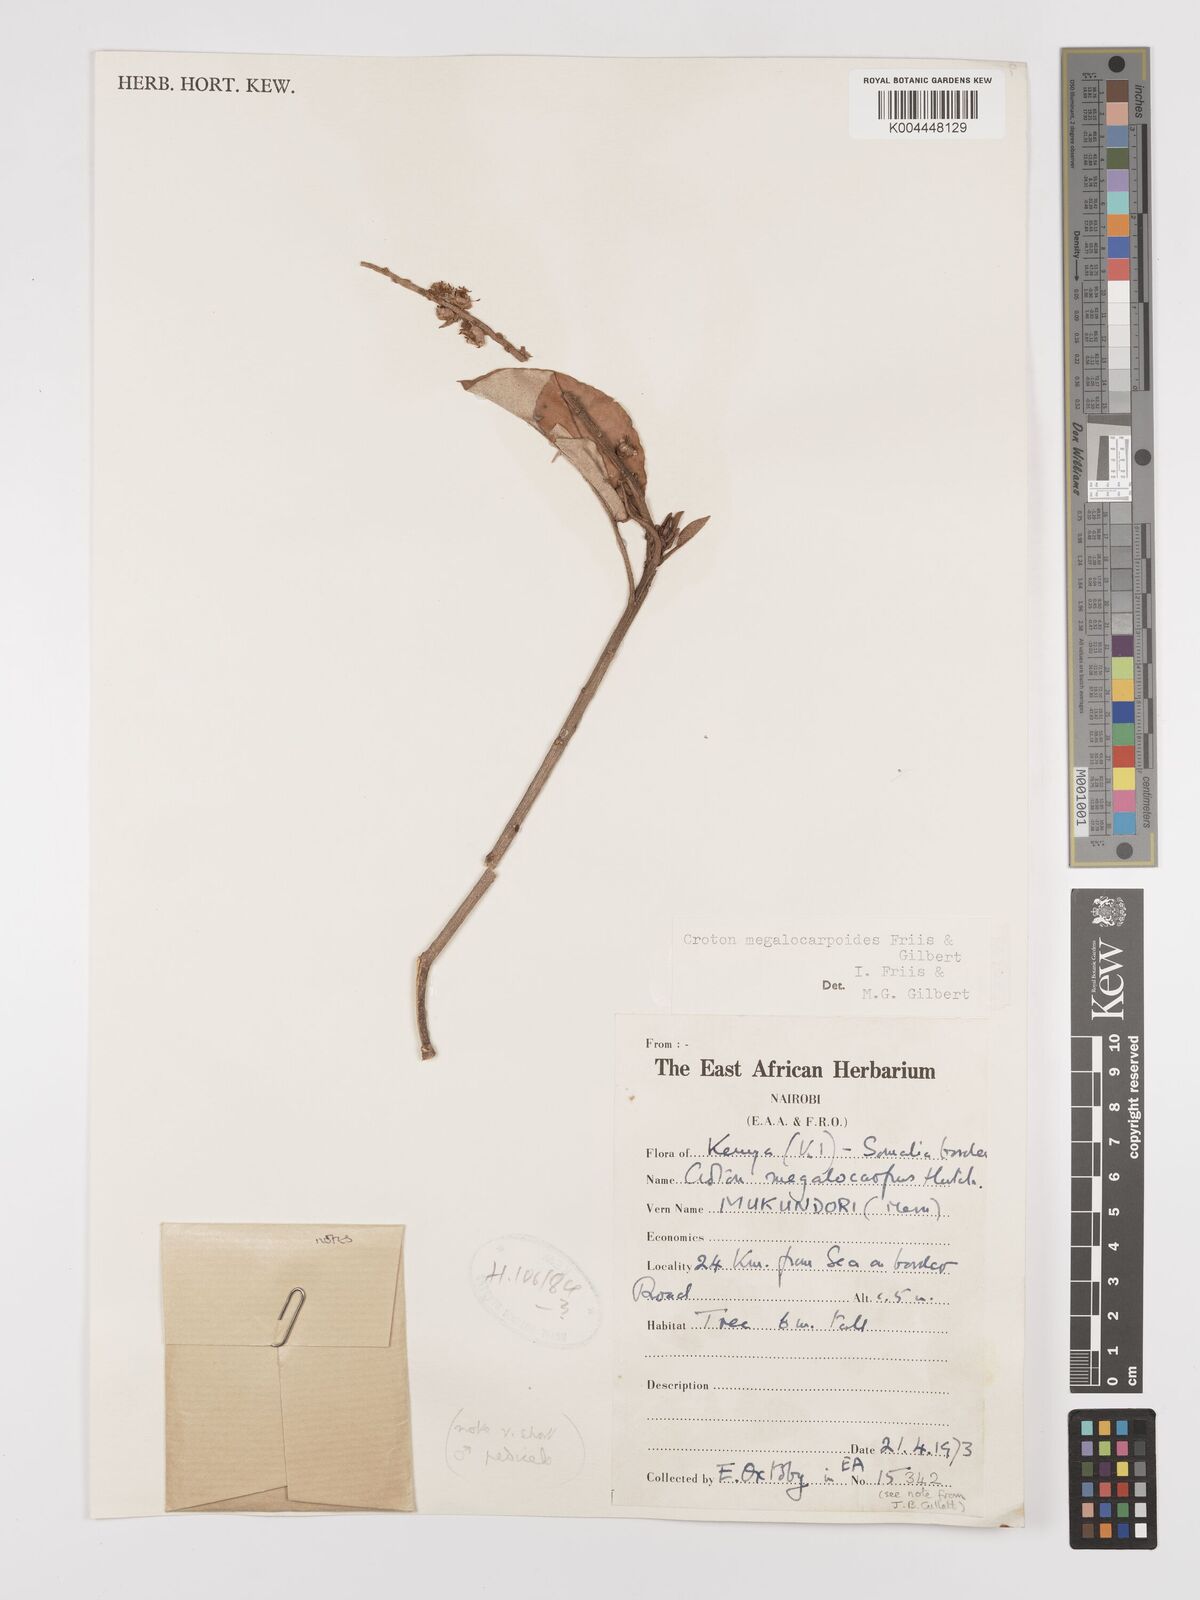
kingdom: Plantae
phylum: Tracheophyta
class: Magnoliopsida
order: Malpighiales
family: Euphorbiaceae
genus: Croton
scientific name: Croton megalocarpoides
